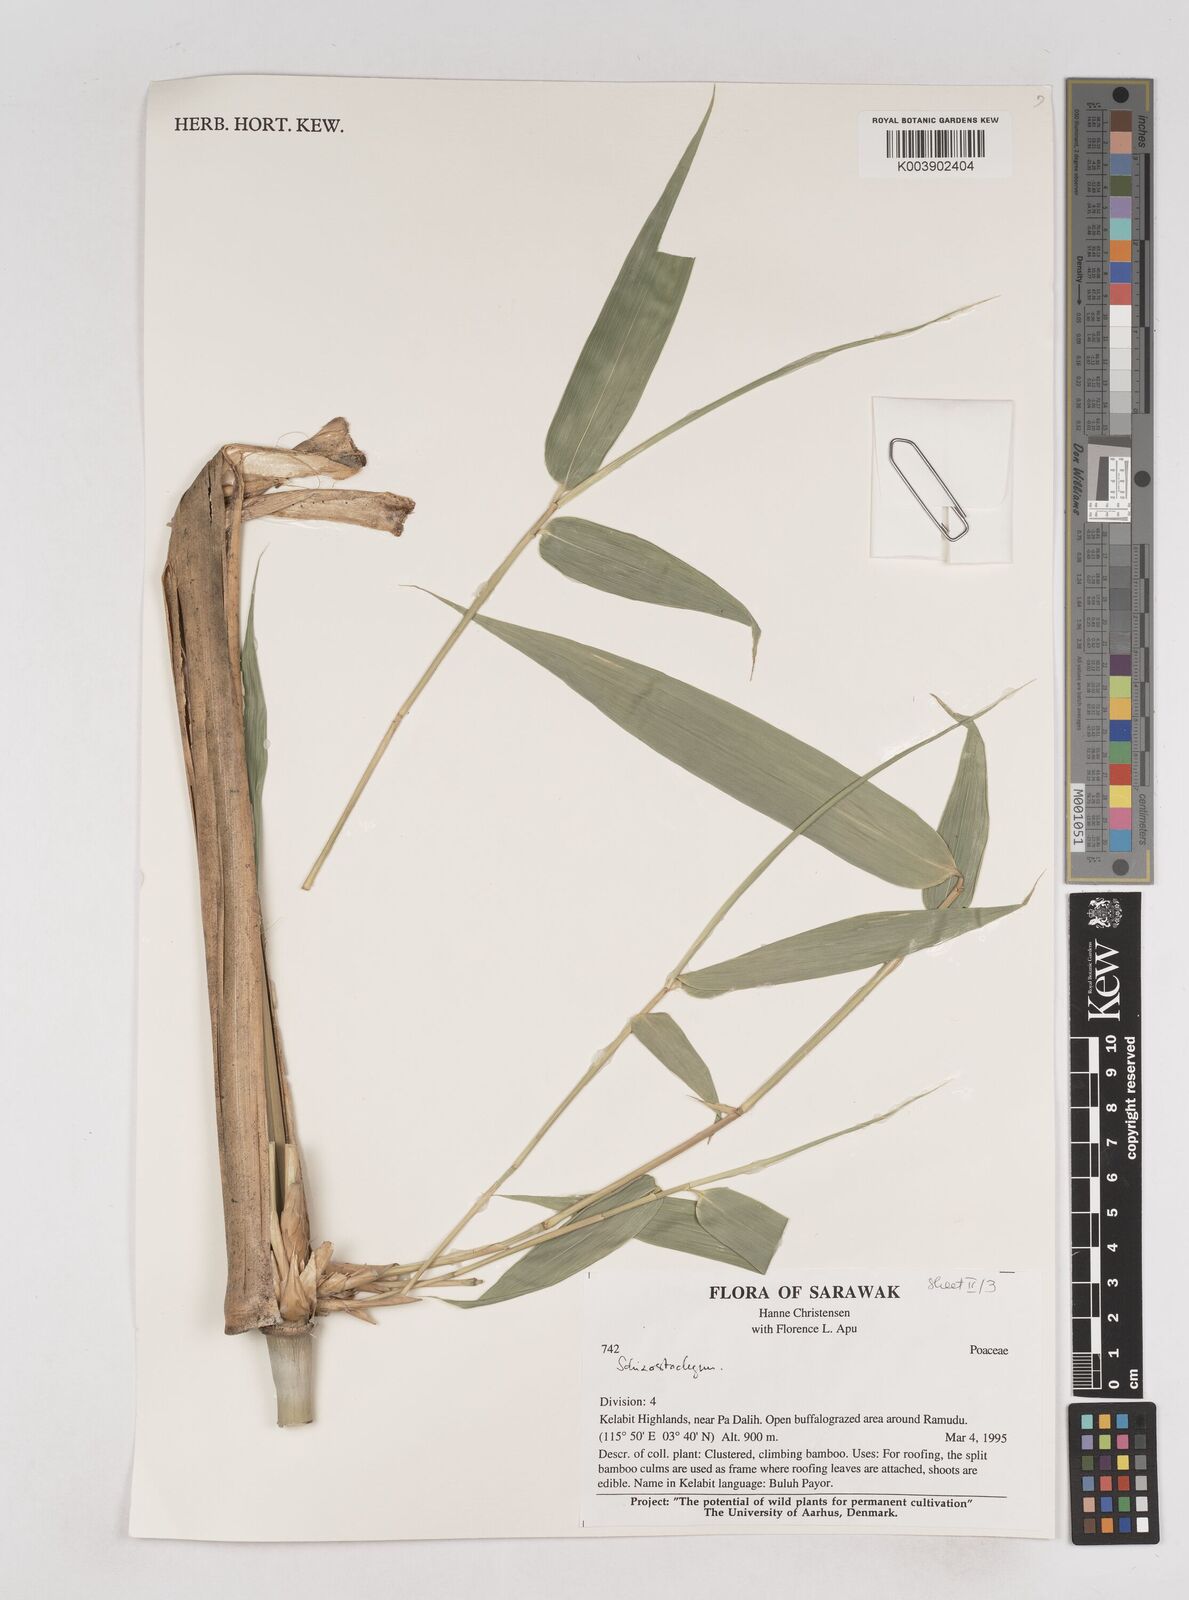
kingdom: Plantae
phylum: Tracheophyta
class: Liliopsida
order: Poales
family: Poaceae
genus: Schizostachyum
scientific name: Schizostachyum
